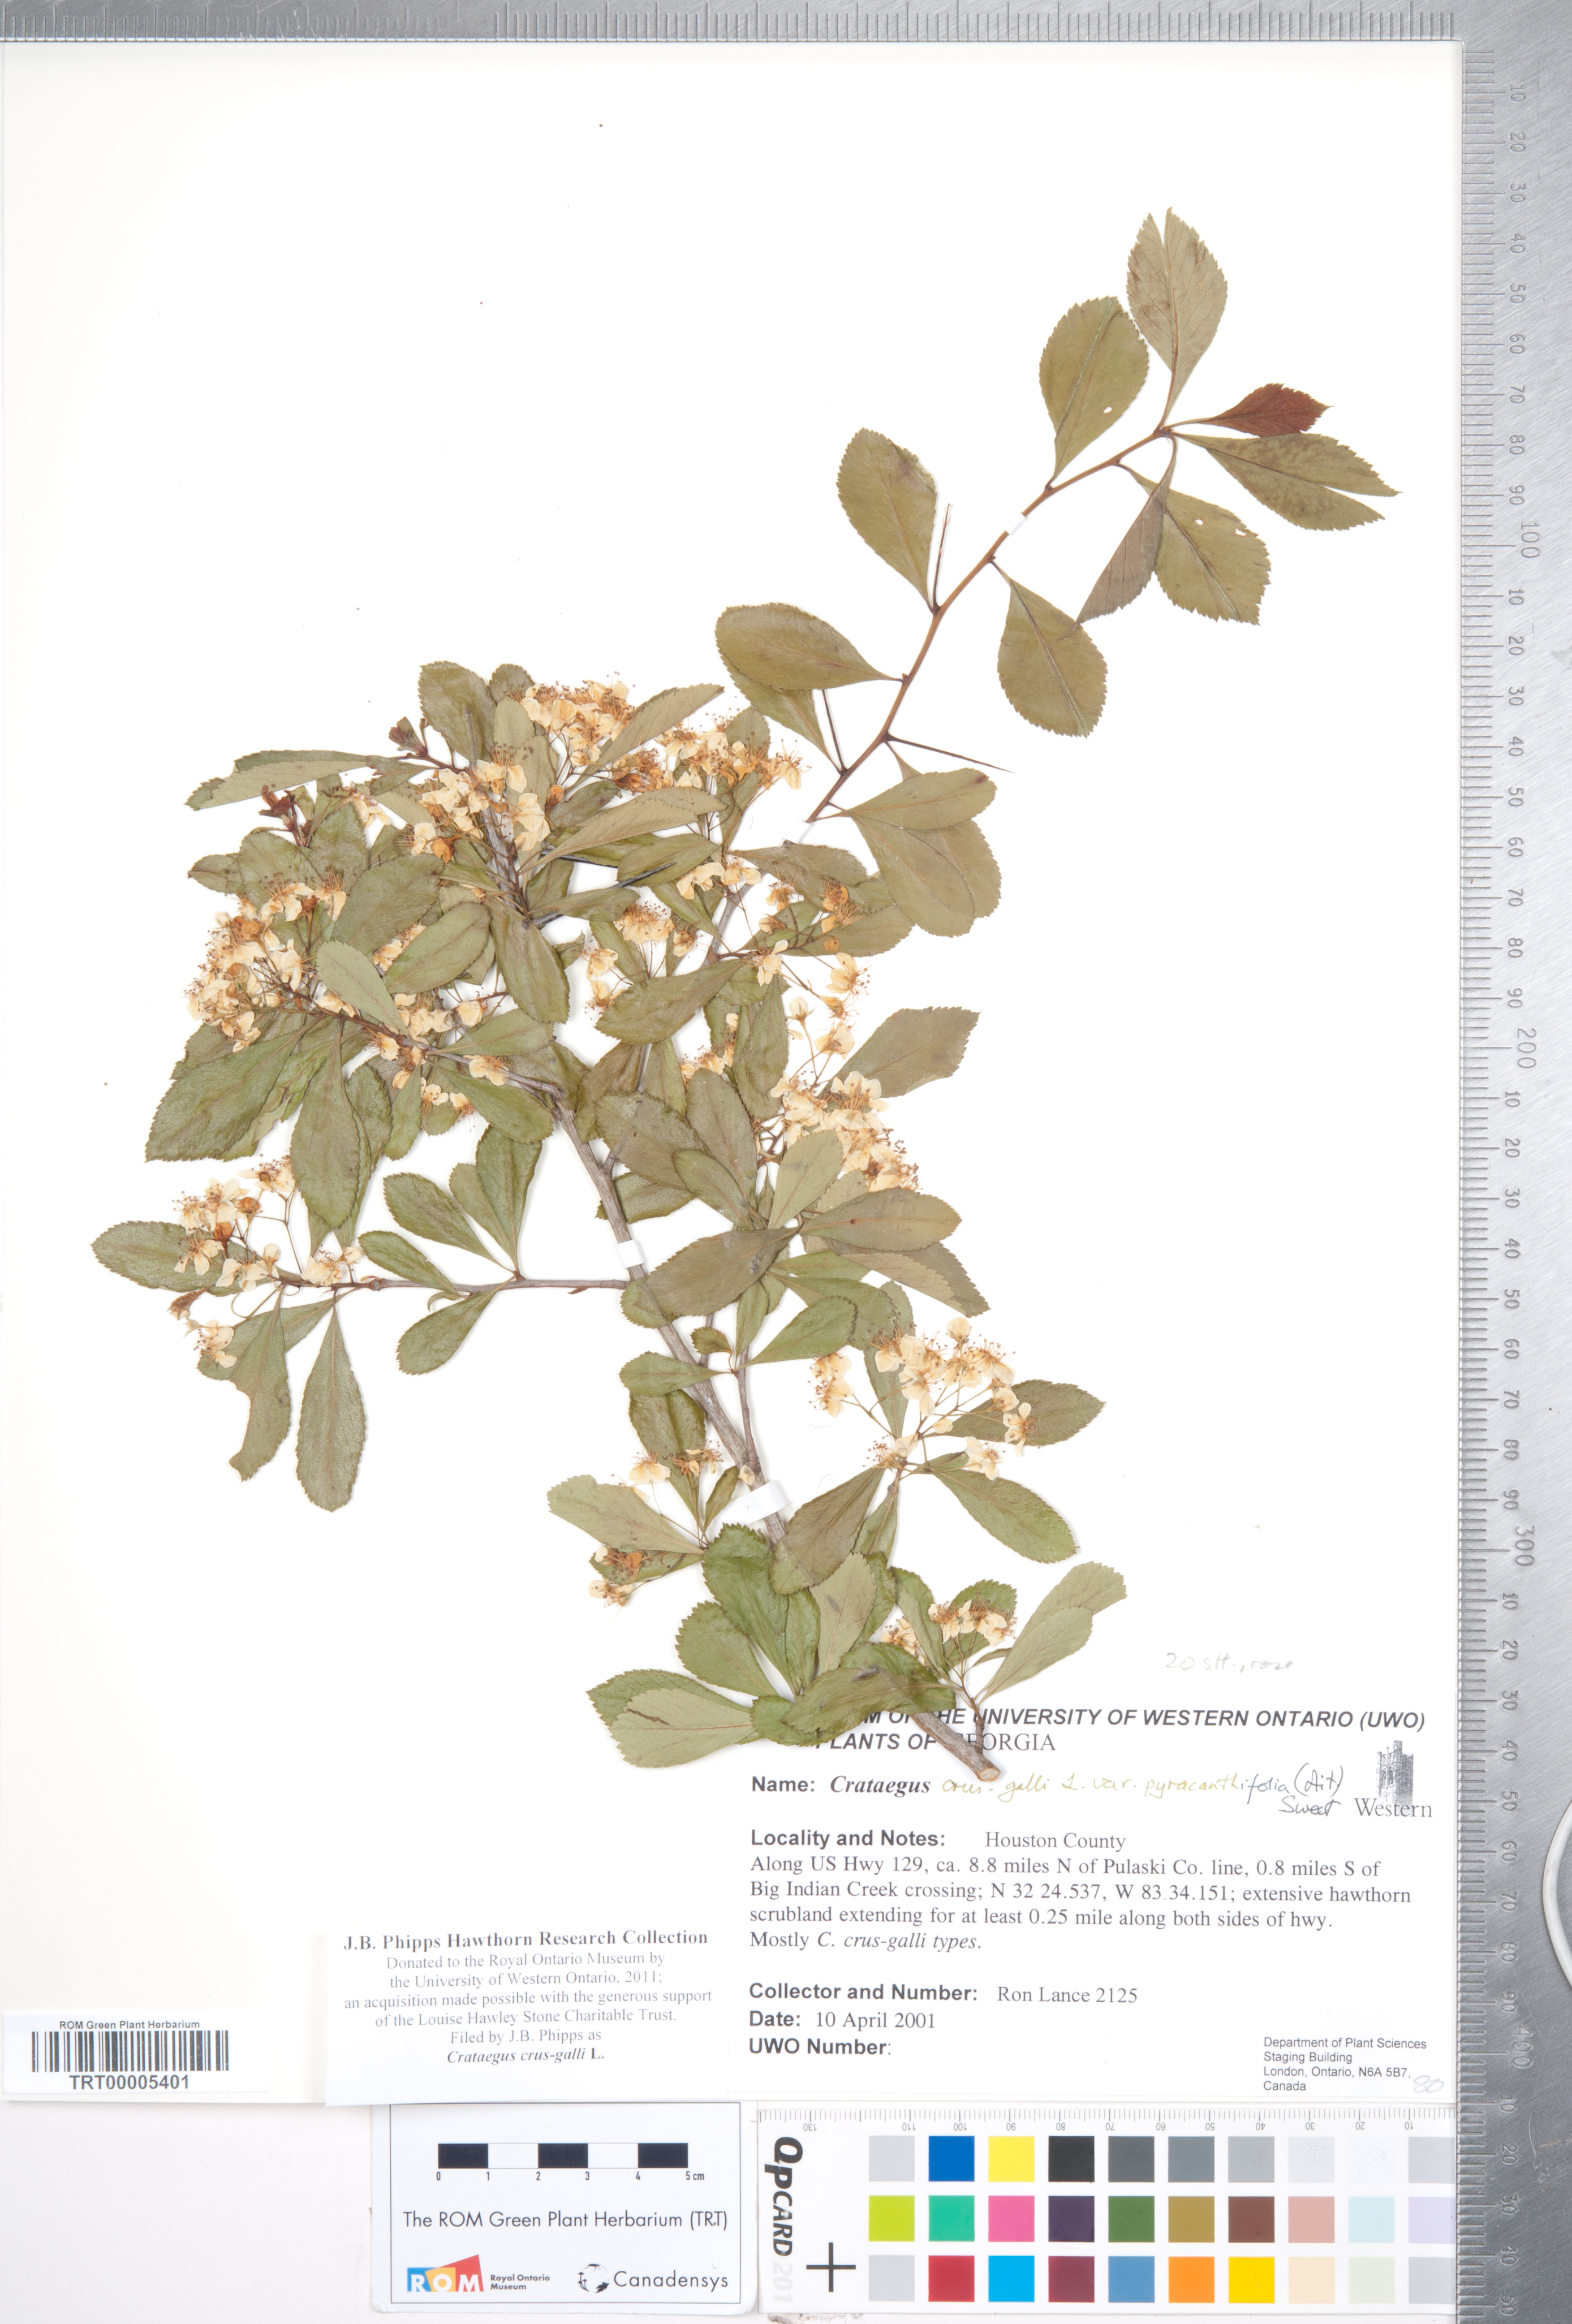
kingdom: Plantae
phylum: Tracheophyta
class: Magnoliopsida
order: Rosales
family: Rosaceae
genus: Crataegus
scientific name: Crataegus crus-galli
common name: Cockspurthorn
